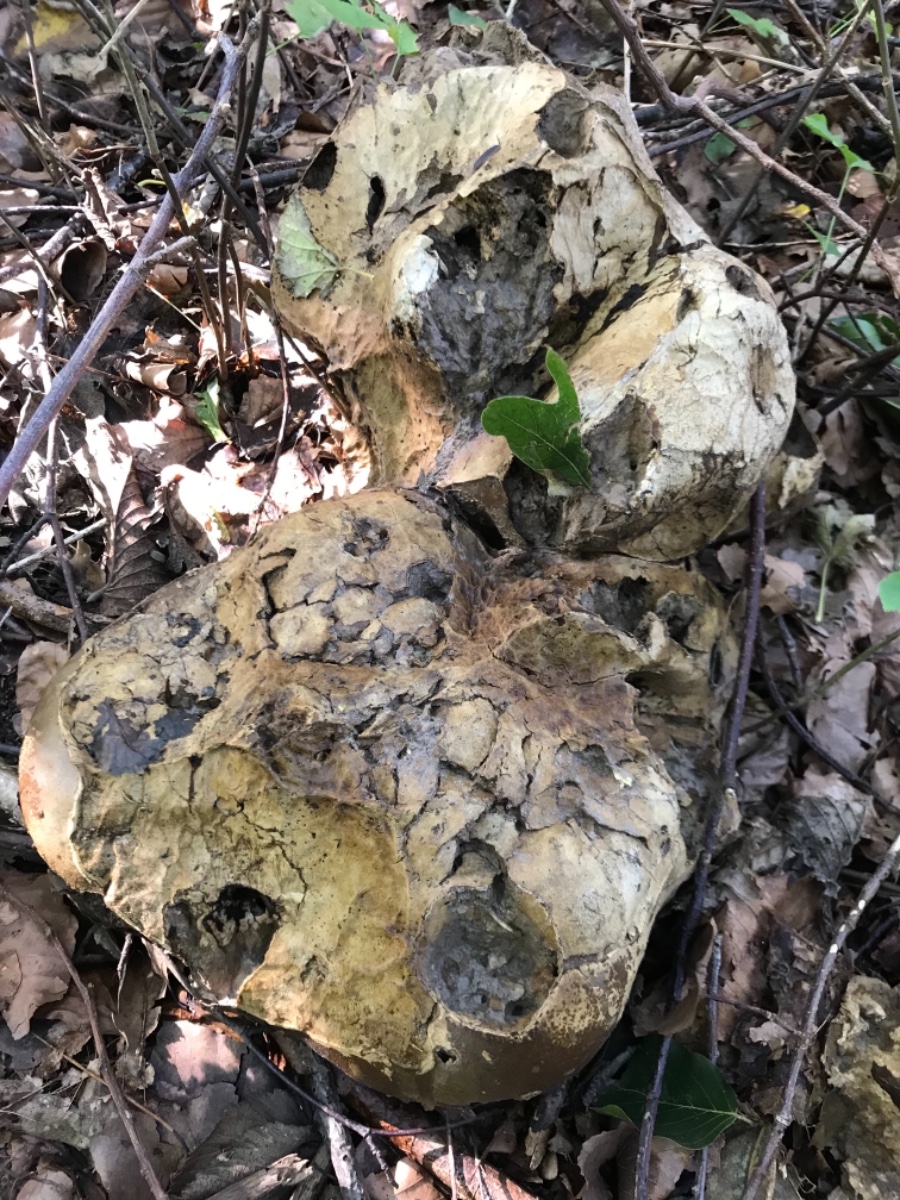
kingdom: Fungi
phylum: Basidiomycota
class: Agaricomycetes
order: Agaricales
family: Lycoperdaceae
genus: Calvatia
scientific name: Calvatia gigantea
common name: kæmpestøvbold
